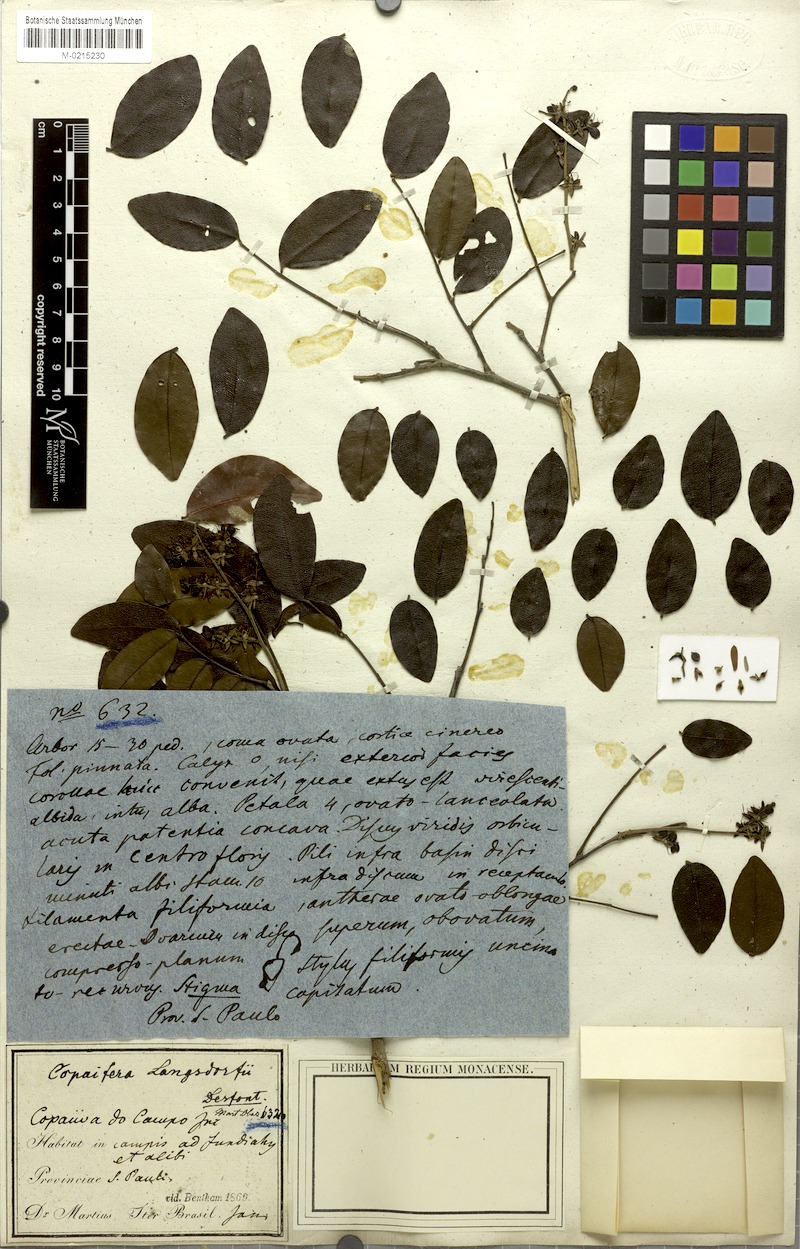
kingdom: Plantae
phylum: Tracheophyta
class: Magnoliopsida
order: Fabales
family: Fabaceae
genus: Copaifera
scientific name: Copaifera langsdorffii
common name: Brazilian diesel tree
